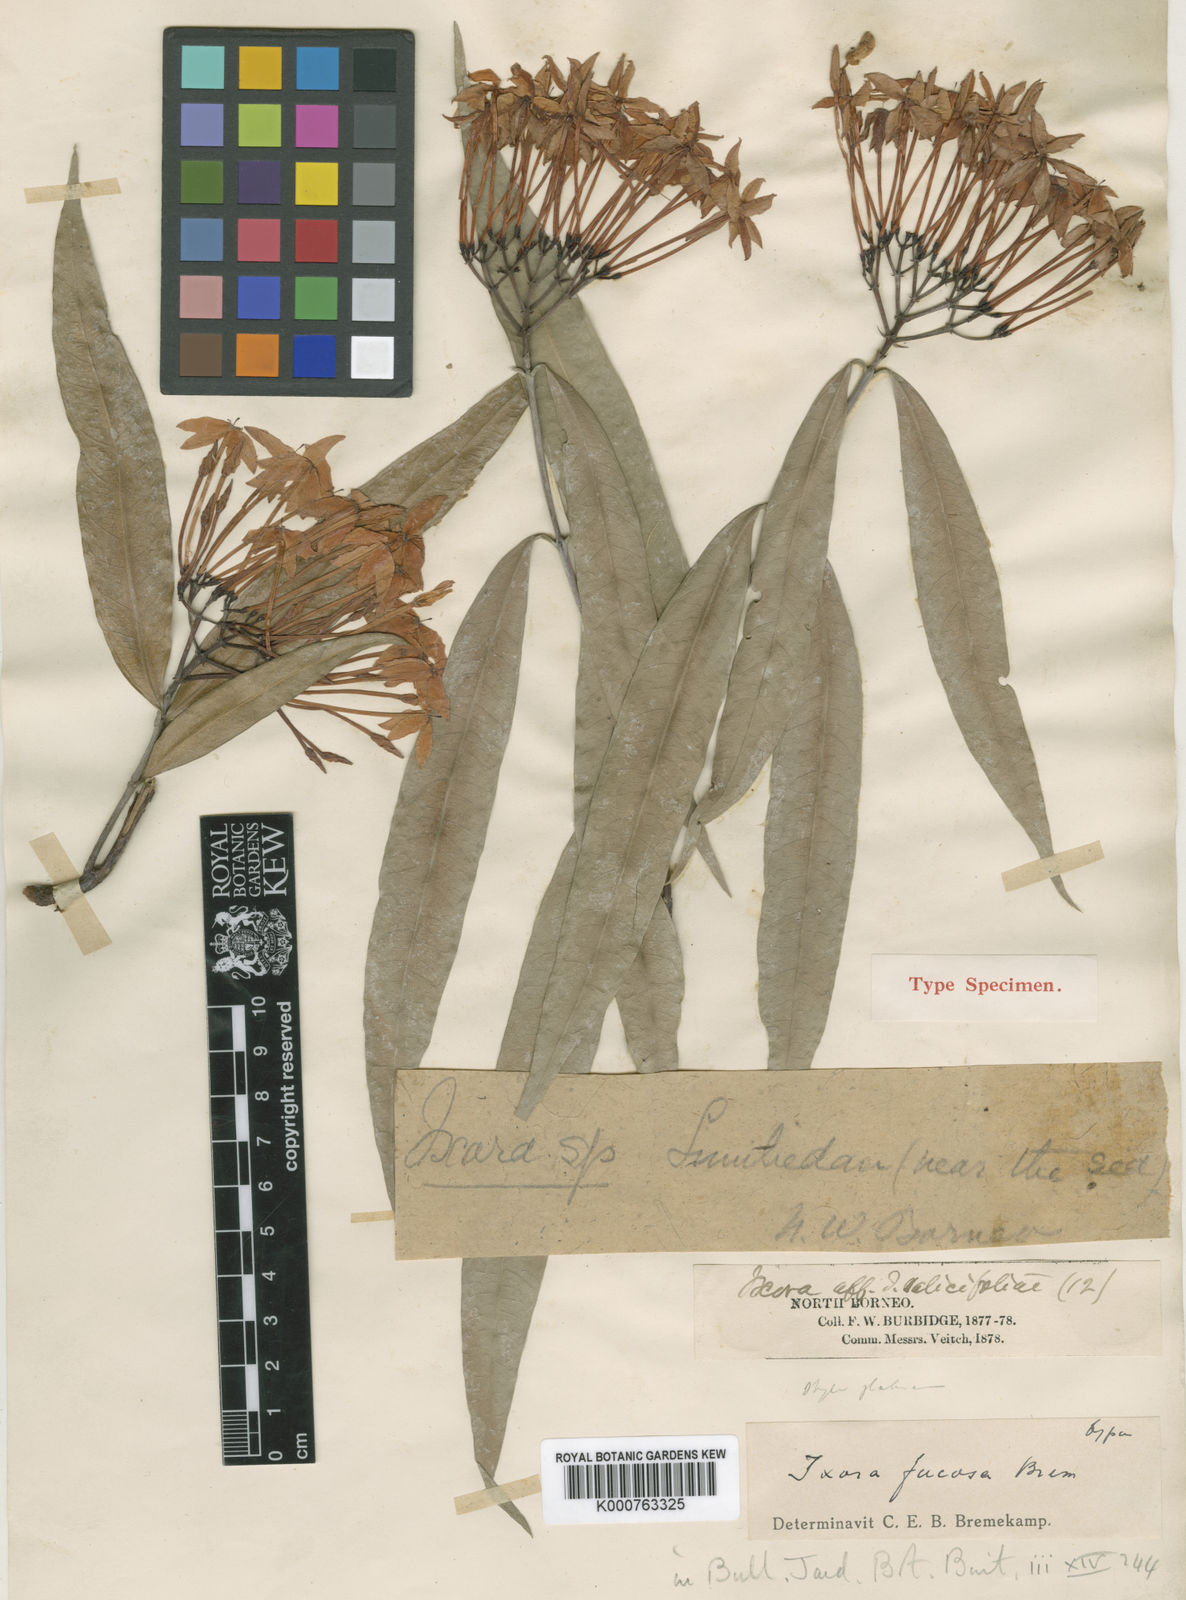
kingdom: Plantae
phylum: Tracheophyta
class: Magnoliopsida
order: Gentianales
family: Rubiaceae
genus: Ixora
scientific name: Ixora fucosa
